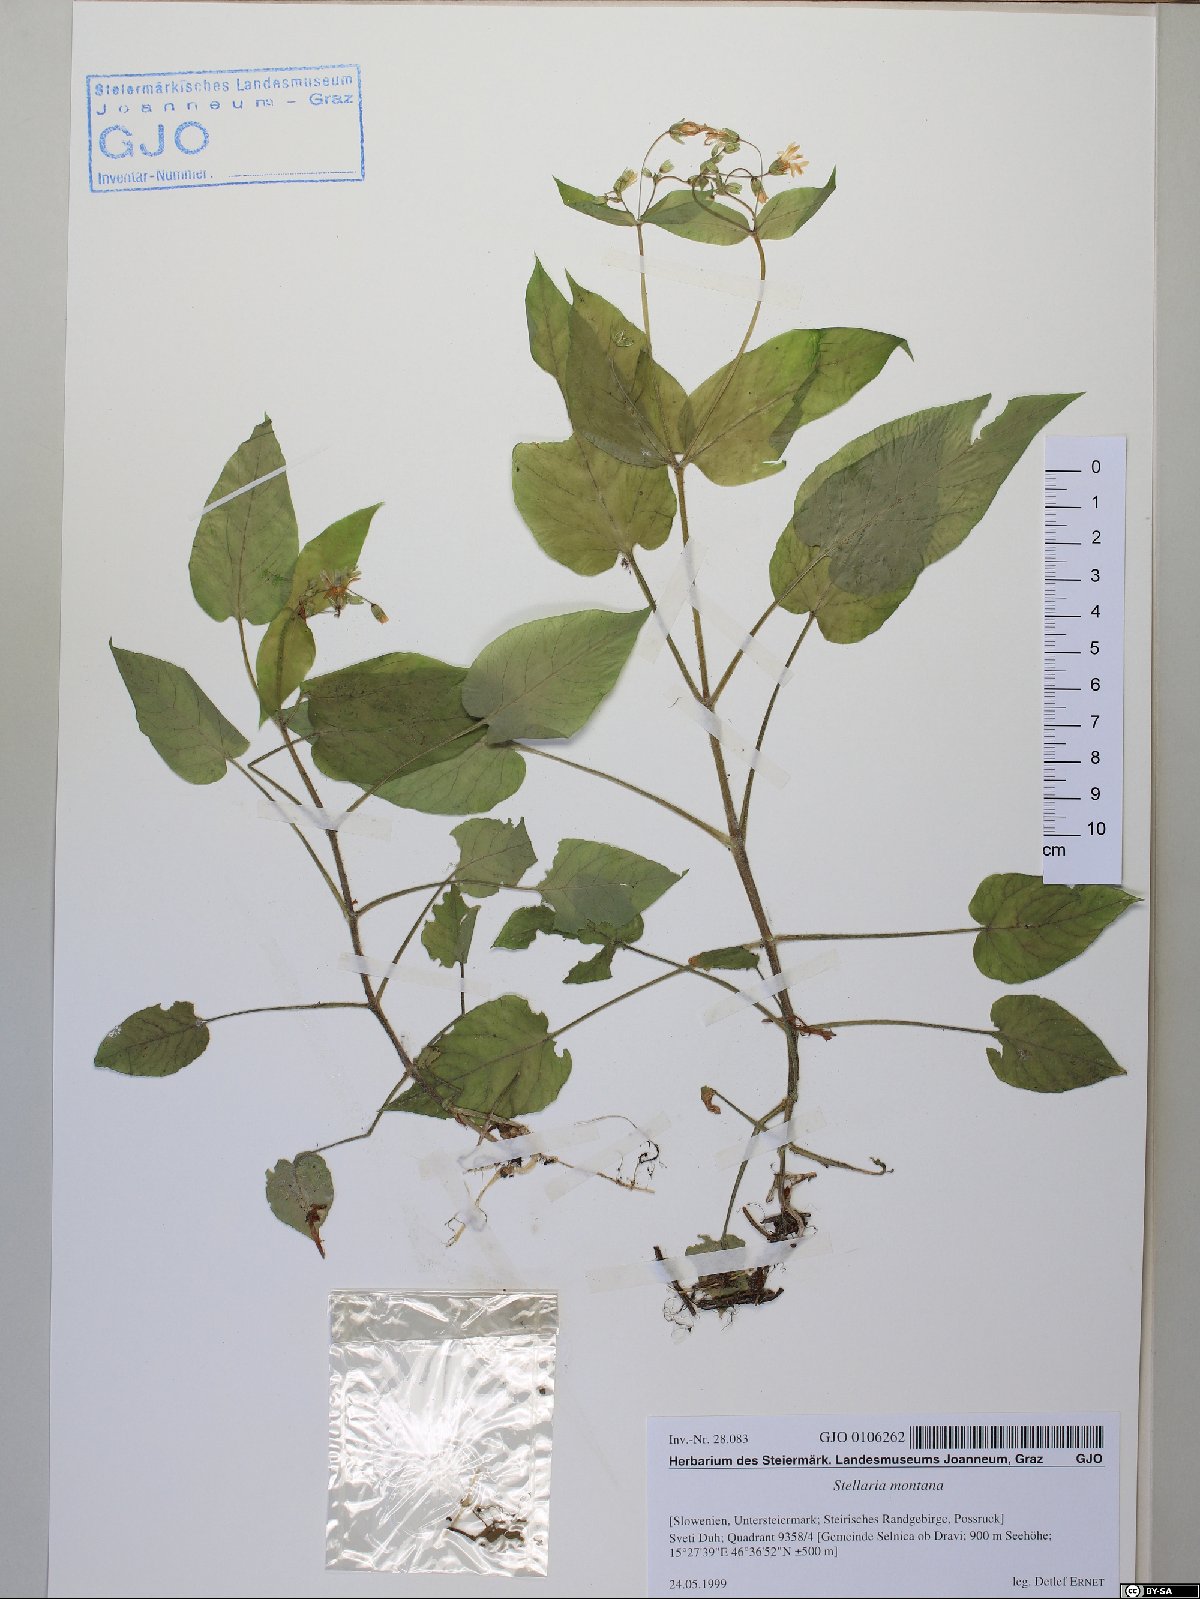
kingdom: Plantae
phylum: Tracheophyta
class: Magnoliopsida
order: Caryophyllales
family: Caryophyllaceae
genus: Stellaria
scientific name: Stellaria montana
